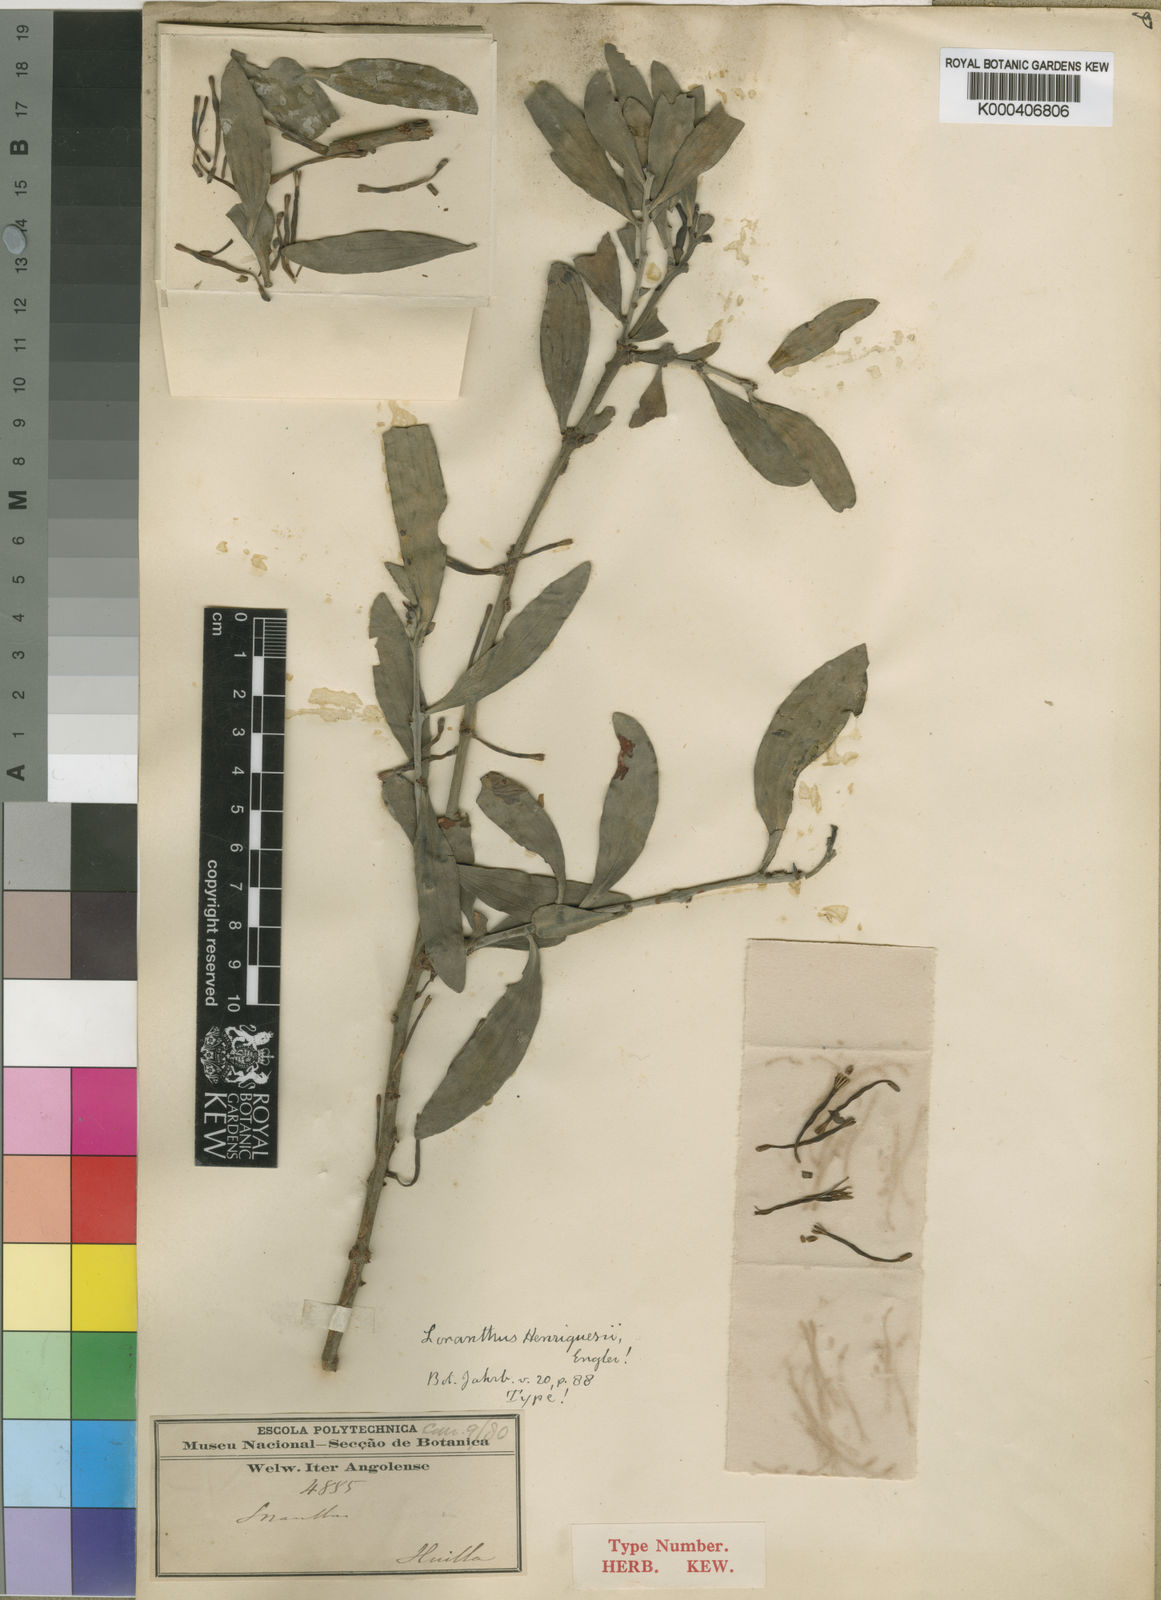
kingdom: Plantae
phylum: Tracheophyta
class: Magnoliopsida
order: Santalales
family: Loranthaceae
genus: Agelanthus
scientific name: Agelanthus glomeratus
